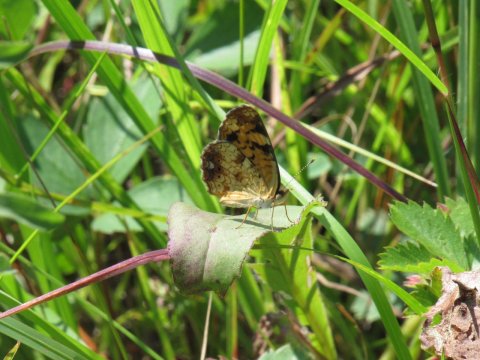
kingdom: Animalia
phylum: Arthropoda
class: Insecta
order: Lepidoptera
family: Nymphalidae
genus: Phyciodes
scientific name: Phyciodes
